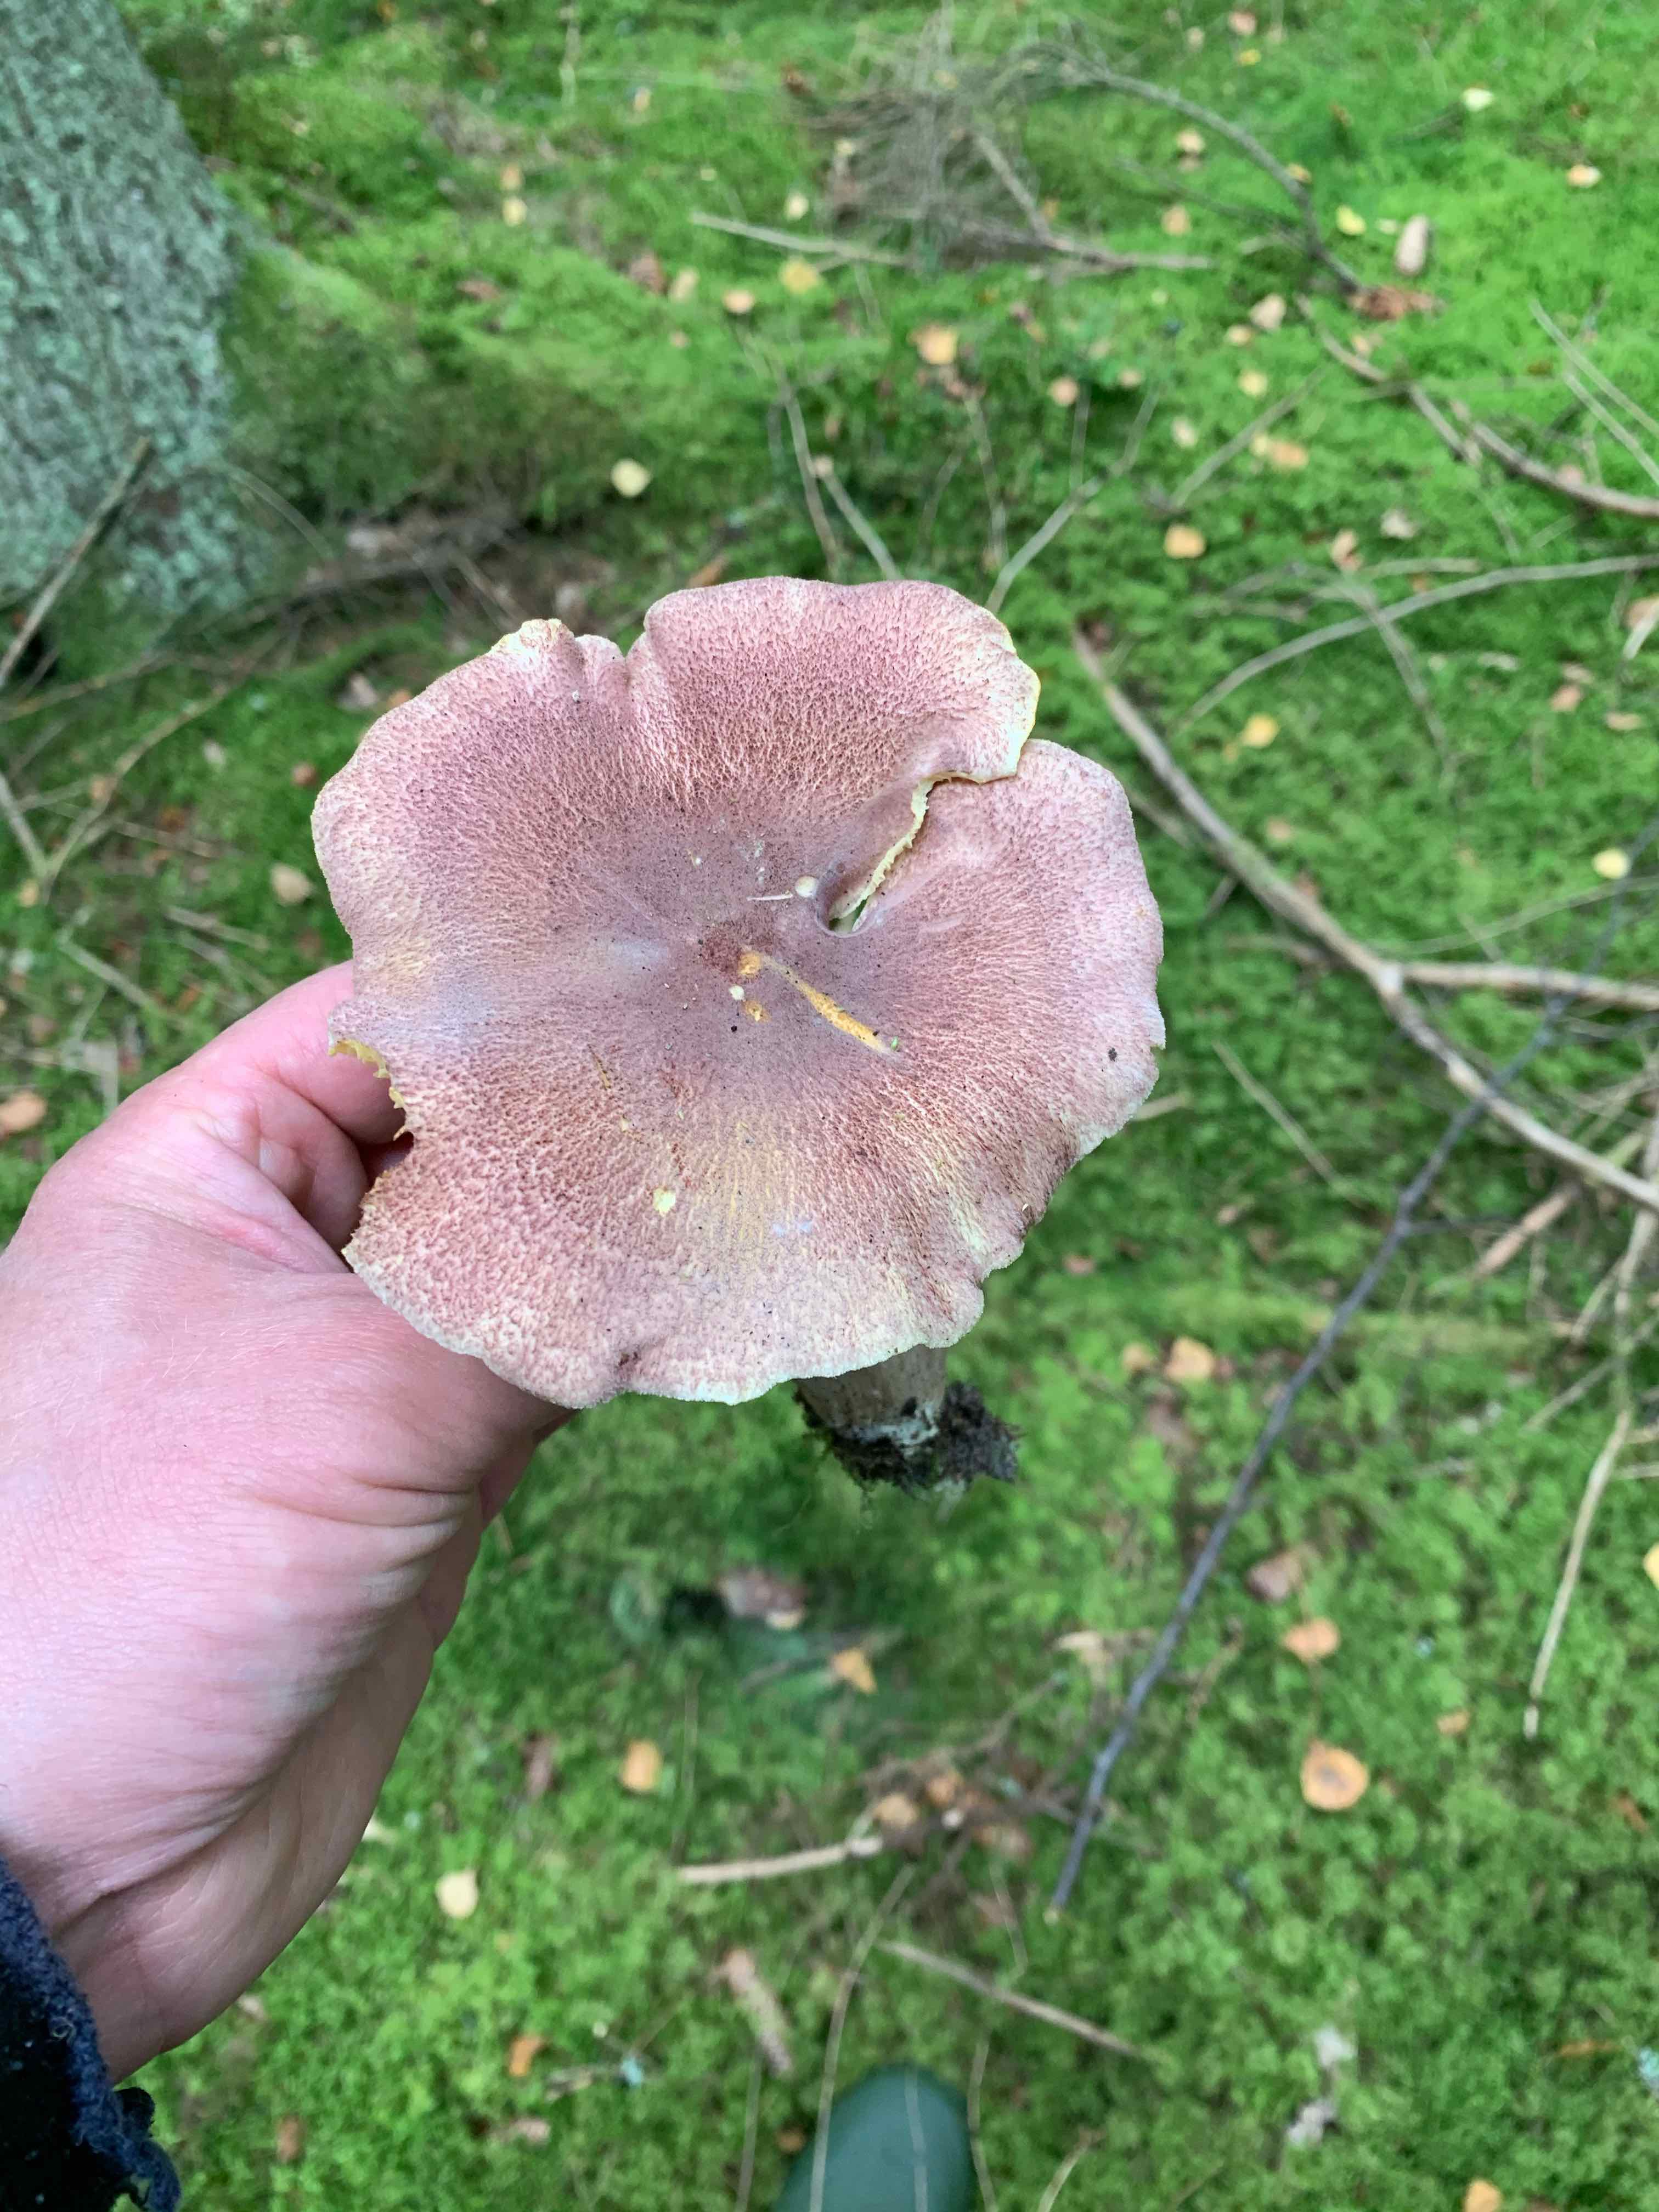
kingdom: Fungi
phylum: Basidiomycota
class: Agaricomycetes
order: Agaricales
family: Tricholomataceae
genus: Tricholomopsis
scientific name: Tricholomopsis rutilans
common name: purpur-væbnerhat
